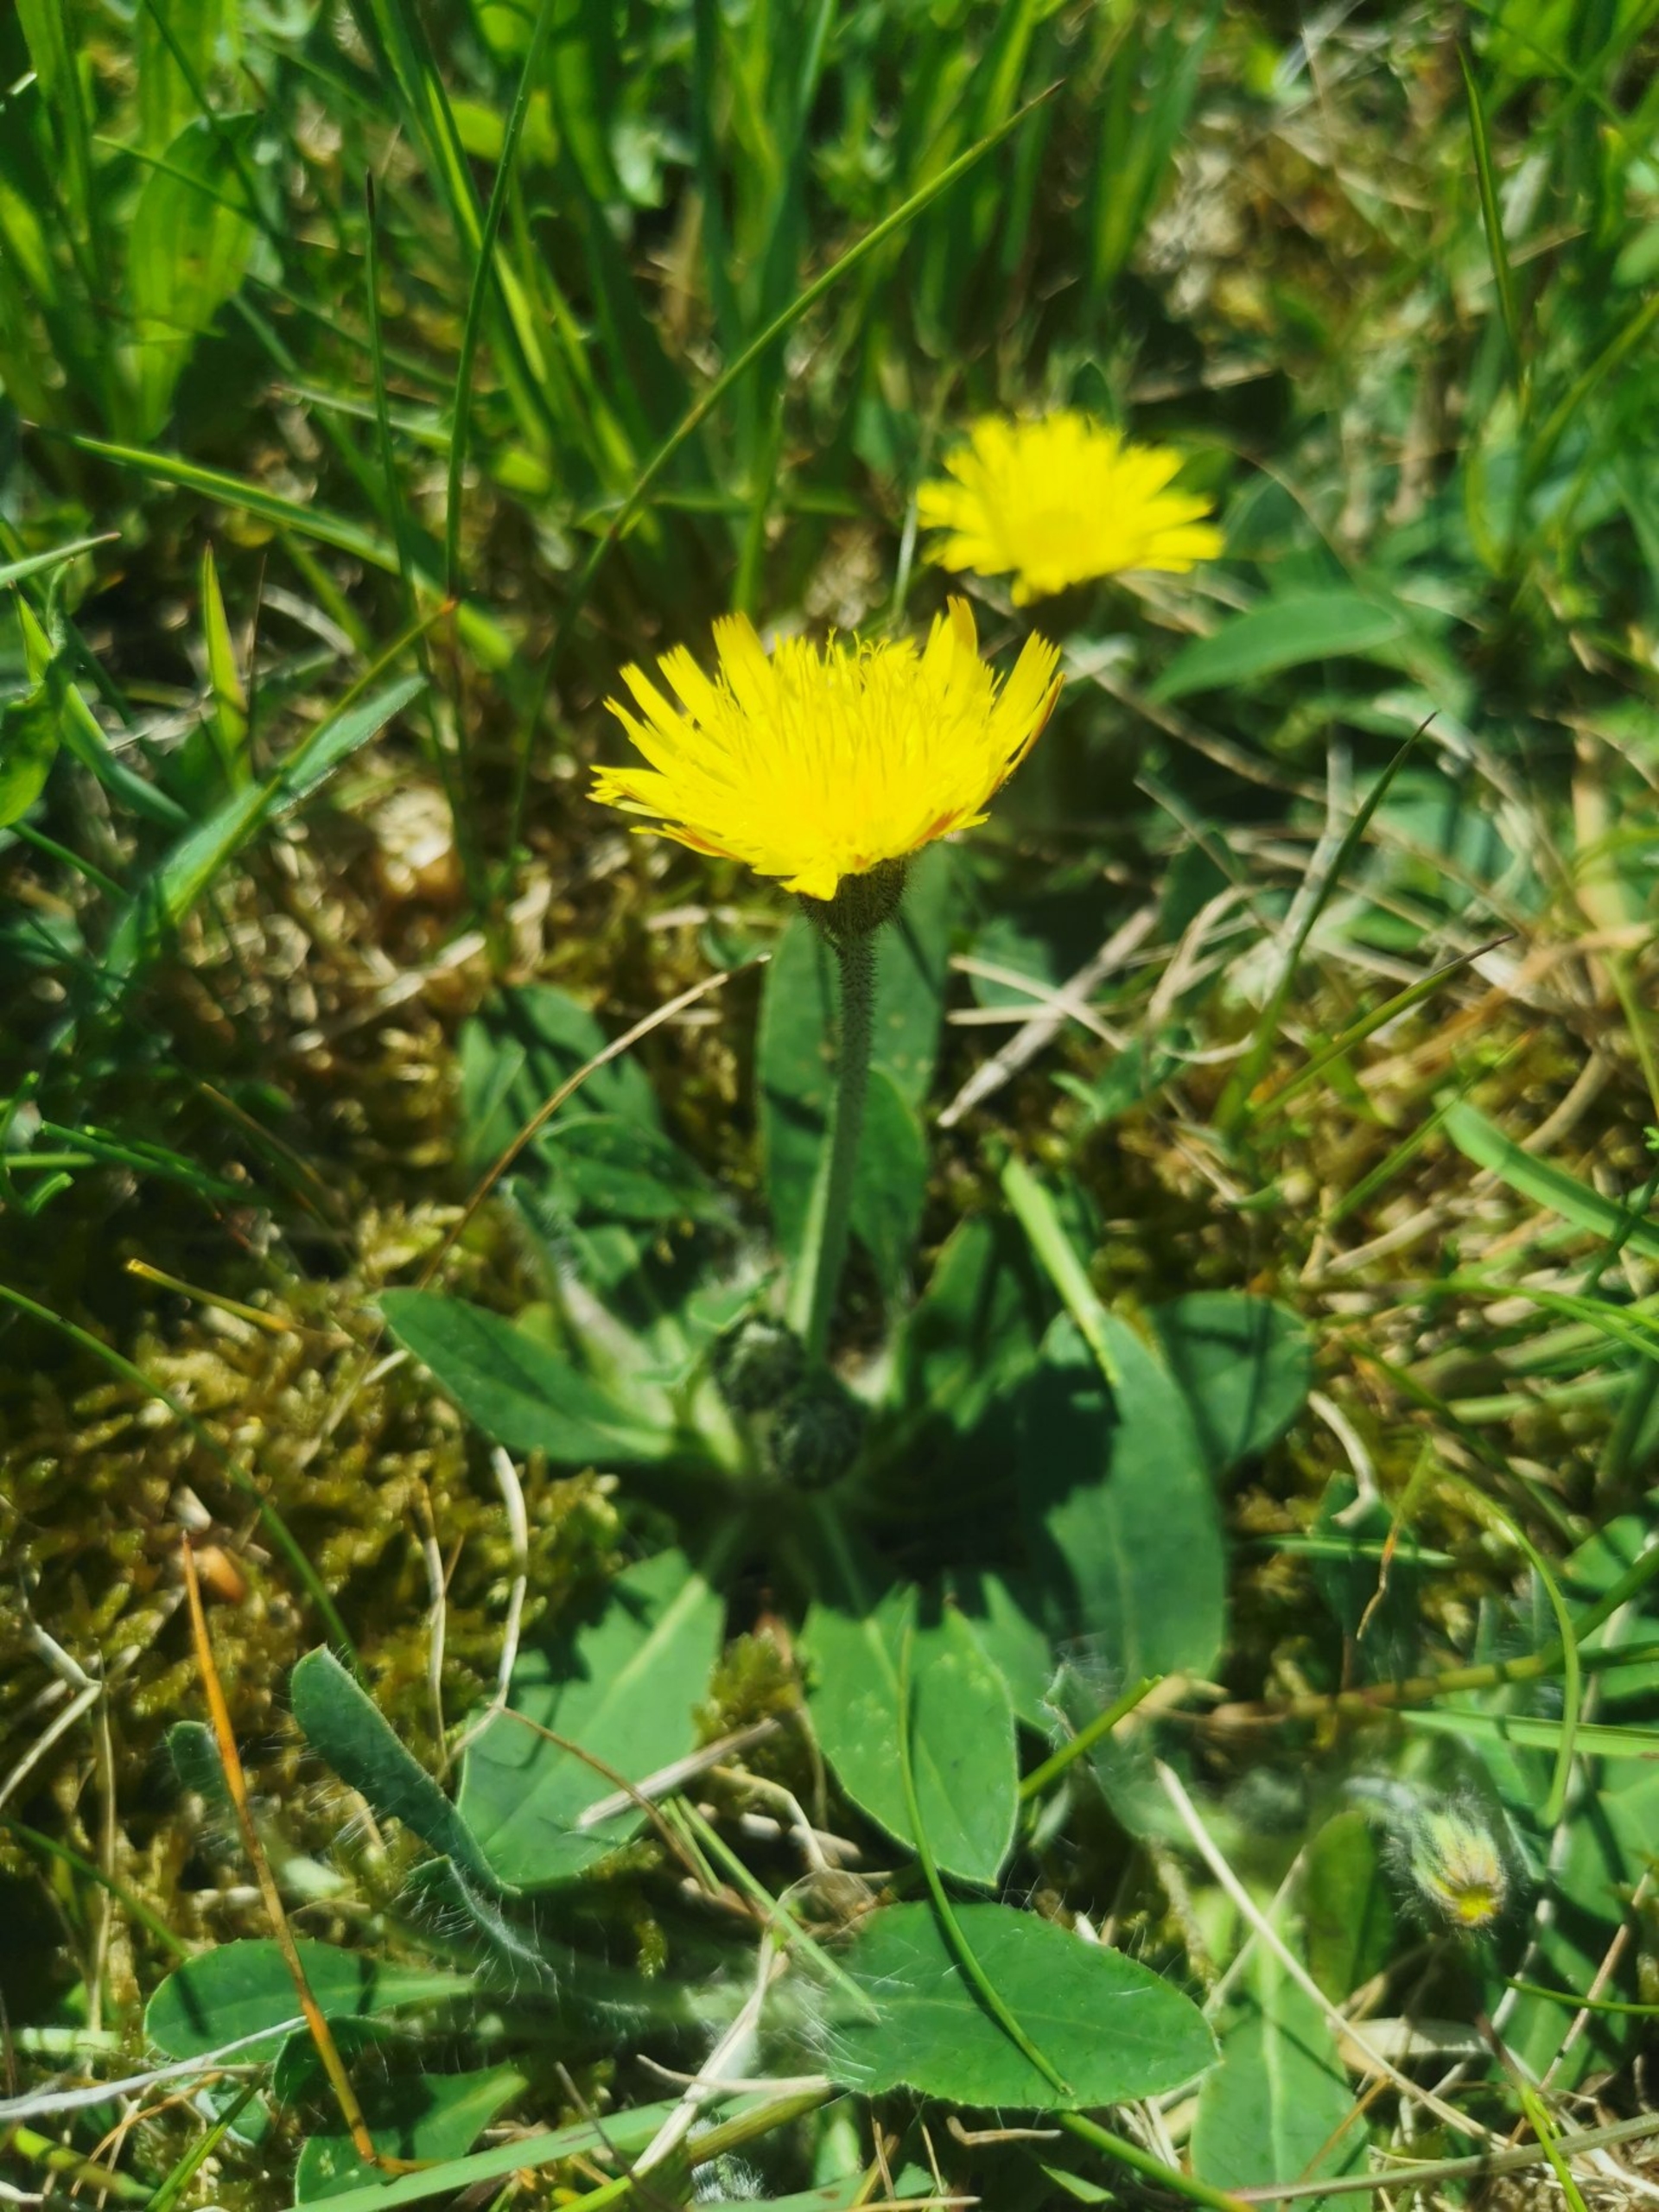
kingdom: Plantae
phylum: Tracheophyta
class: Magnoliopsida
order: Asterales
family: Asteraceae
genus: Pilosella
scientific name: Pilosella officinarum
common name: Håret høgeurt
